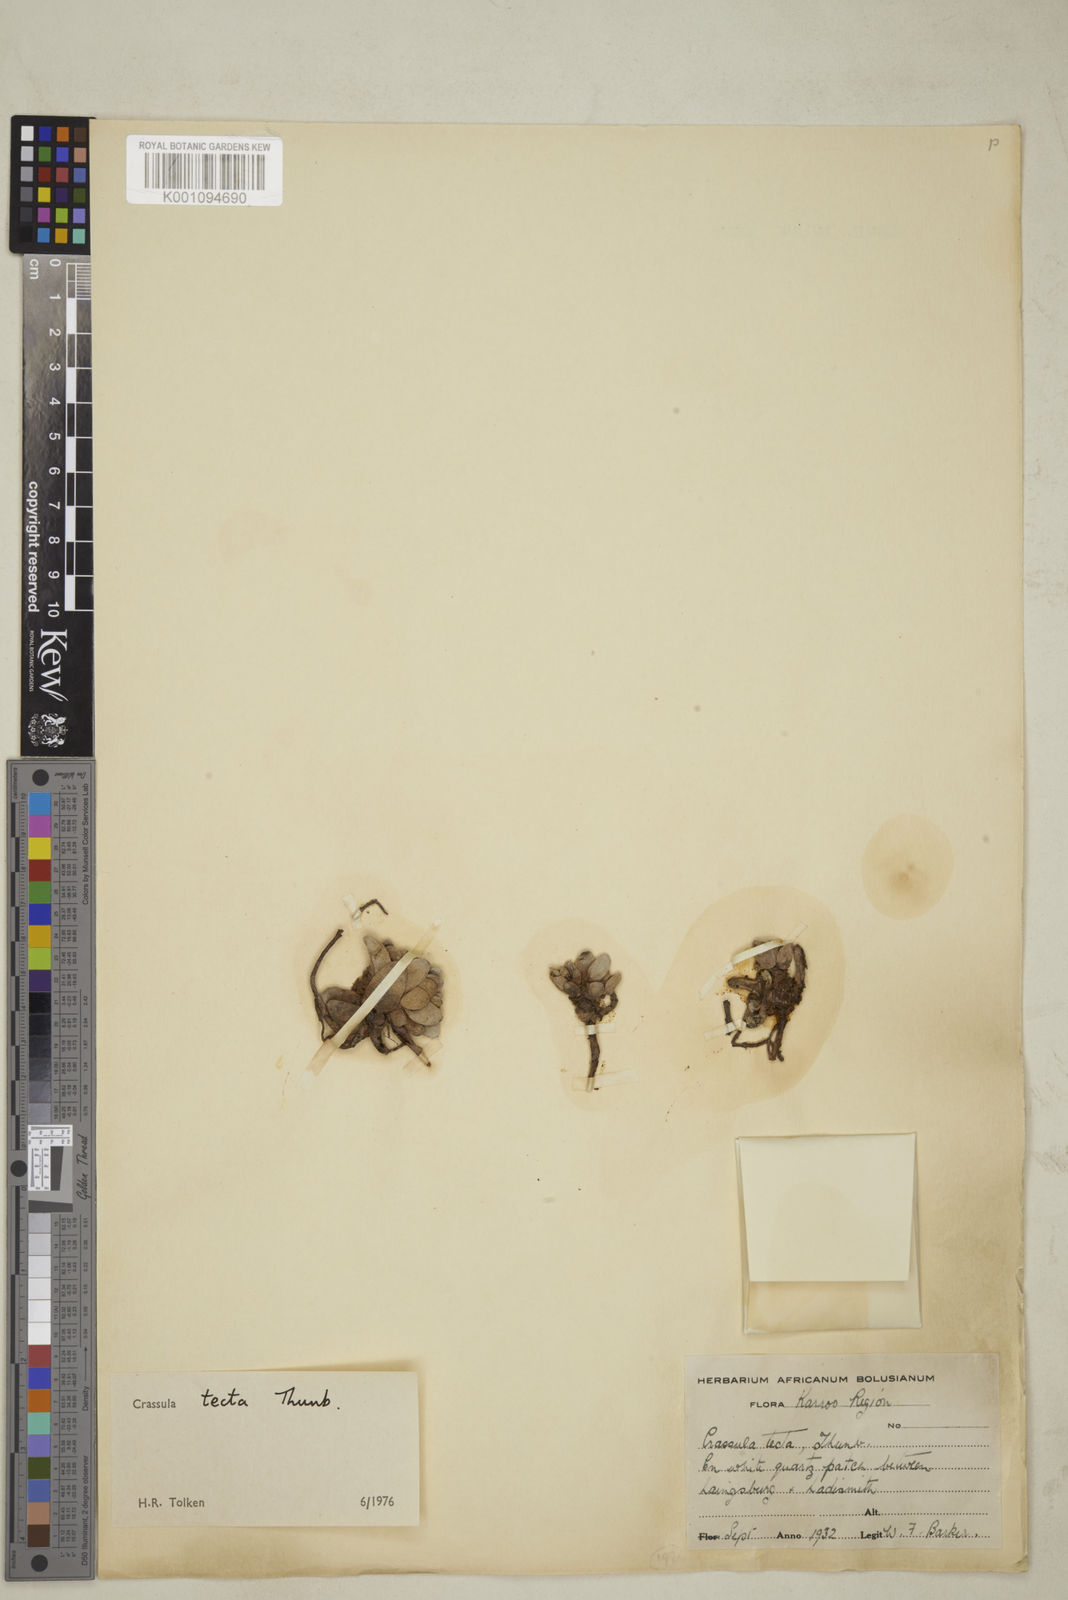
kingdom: Plantae
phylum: Tracheophyta
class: Magnoliopsida
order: Saxifragales
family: Crassulaceae
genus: Crassula
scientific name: Crassula tecta
